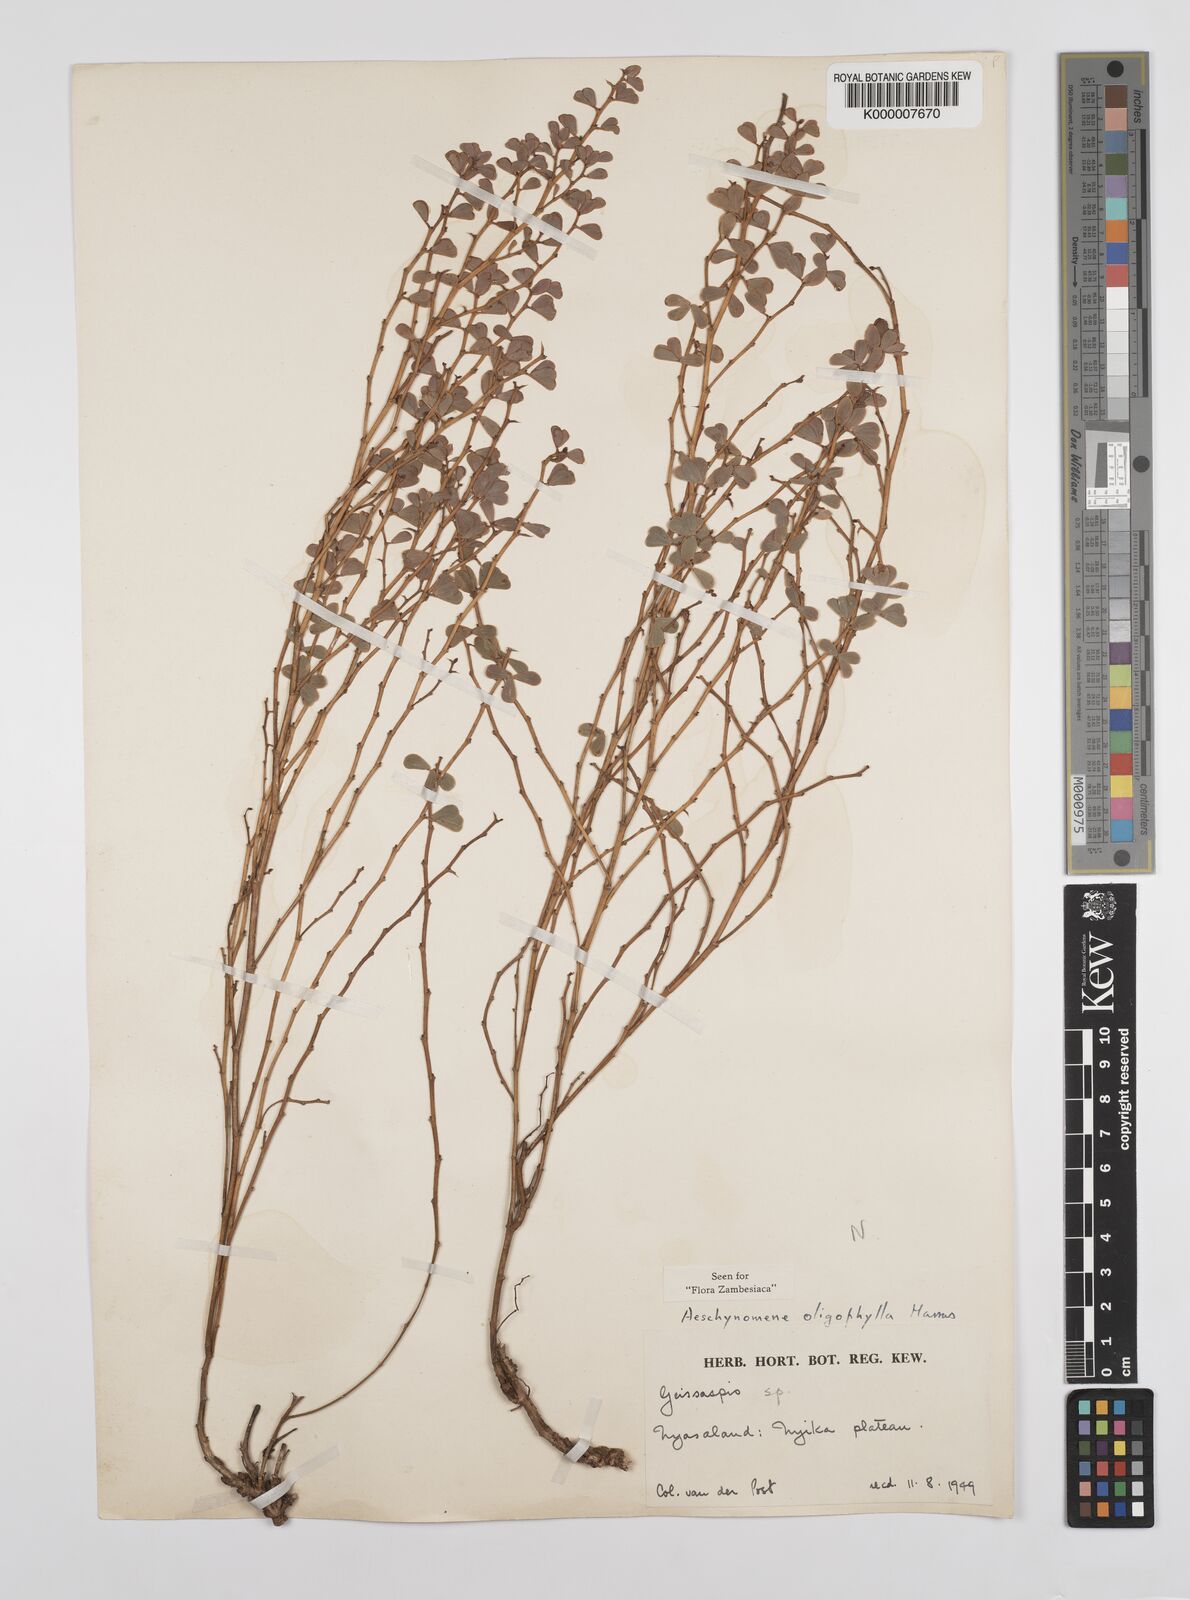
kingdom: Plantae
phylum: Tracheophyta
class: Magnoliopsida
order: Fabales
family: Fabaceae
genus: Aeschynomene
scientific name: Aeschynomene oligophylla
